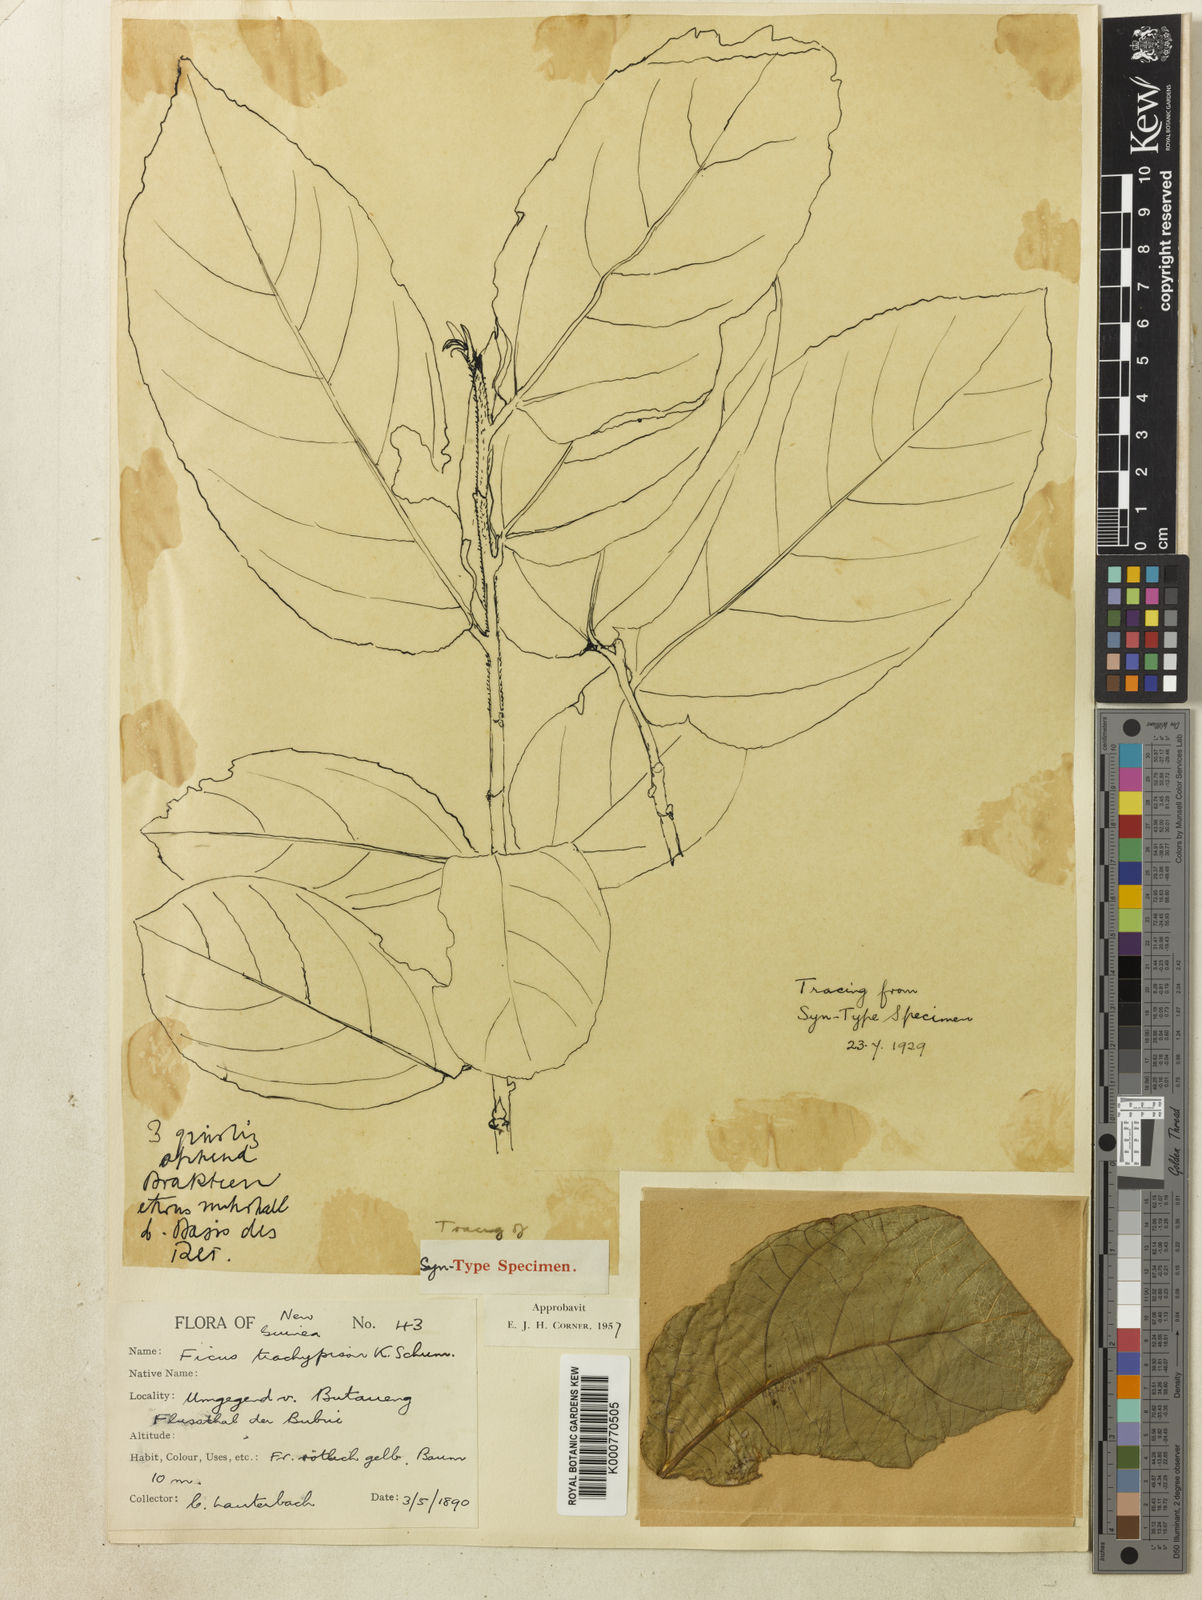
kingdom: Plantae
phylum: Tracheophyta
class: Magnoliopsida
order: Rosales
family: Moraceae
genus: Ficus
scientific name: Ficus trachypison
